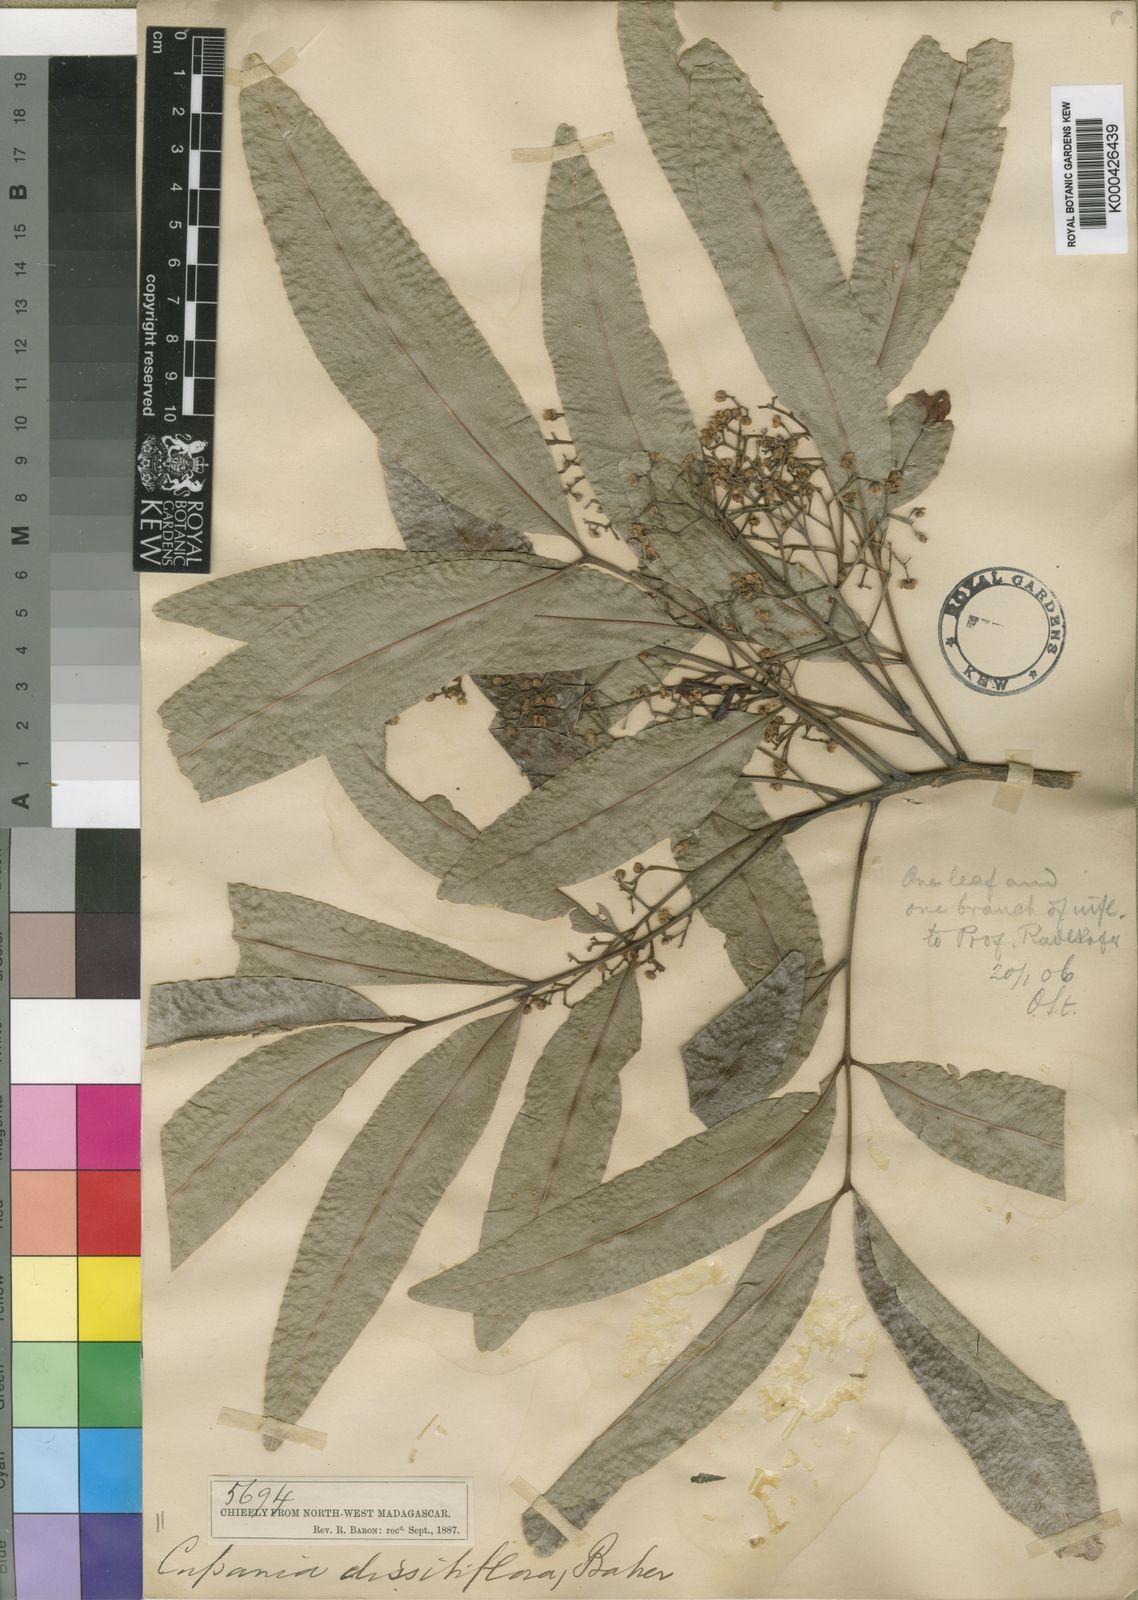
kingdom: Plantae
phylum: Tracheophyta
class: Magnoliopsida
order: Sapindales
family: Sapindaceae
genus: Tina
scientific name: Tina dissitiflora
